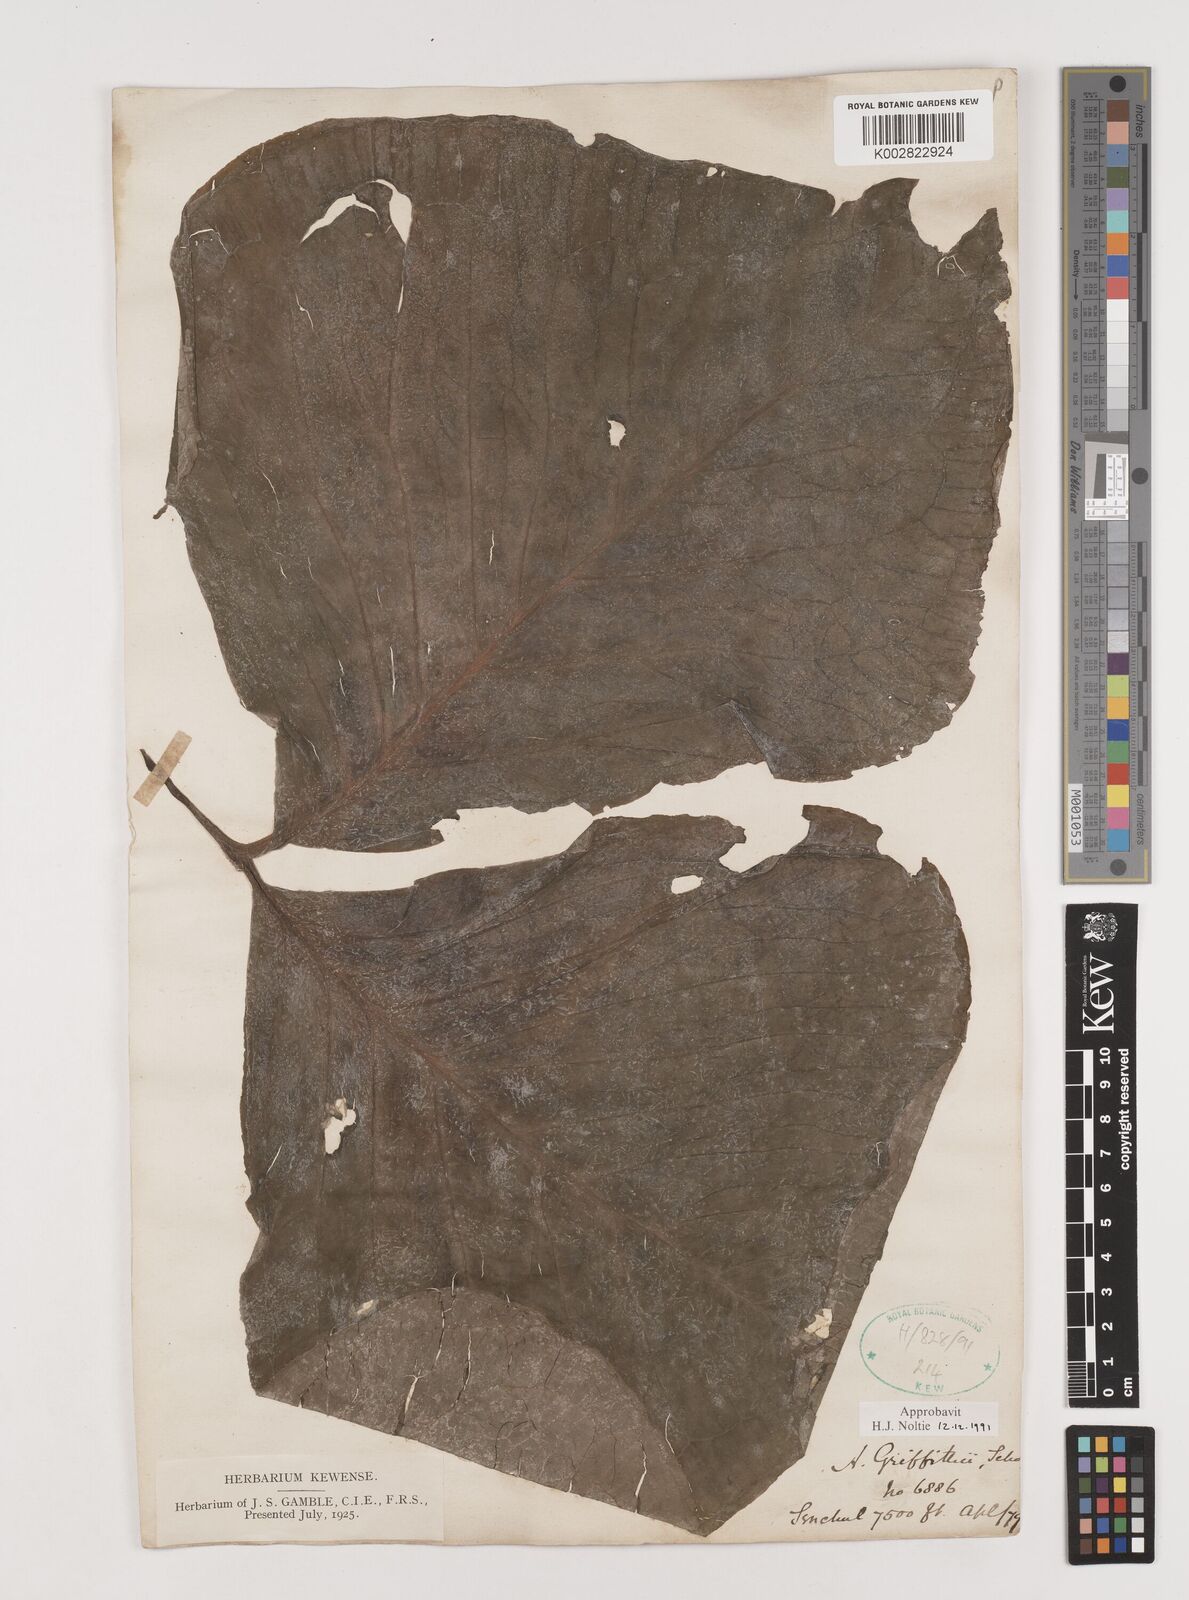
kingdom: Plantae
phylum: Tracheophyta
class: Liliopsida
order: Alismatales
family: Araceae
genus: Arisaema
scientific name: Arisaema griffithii
